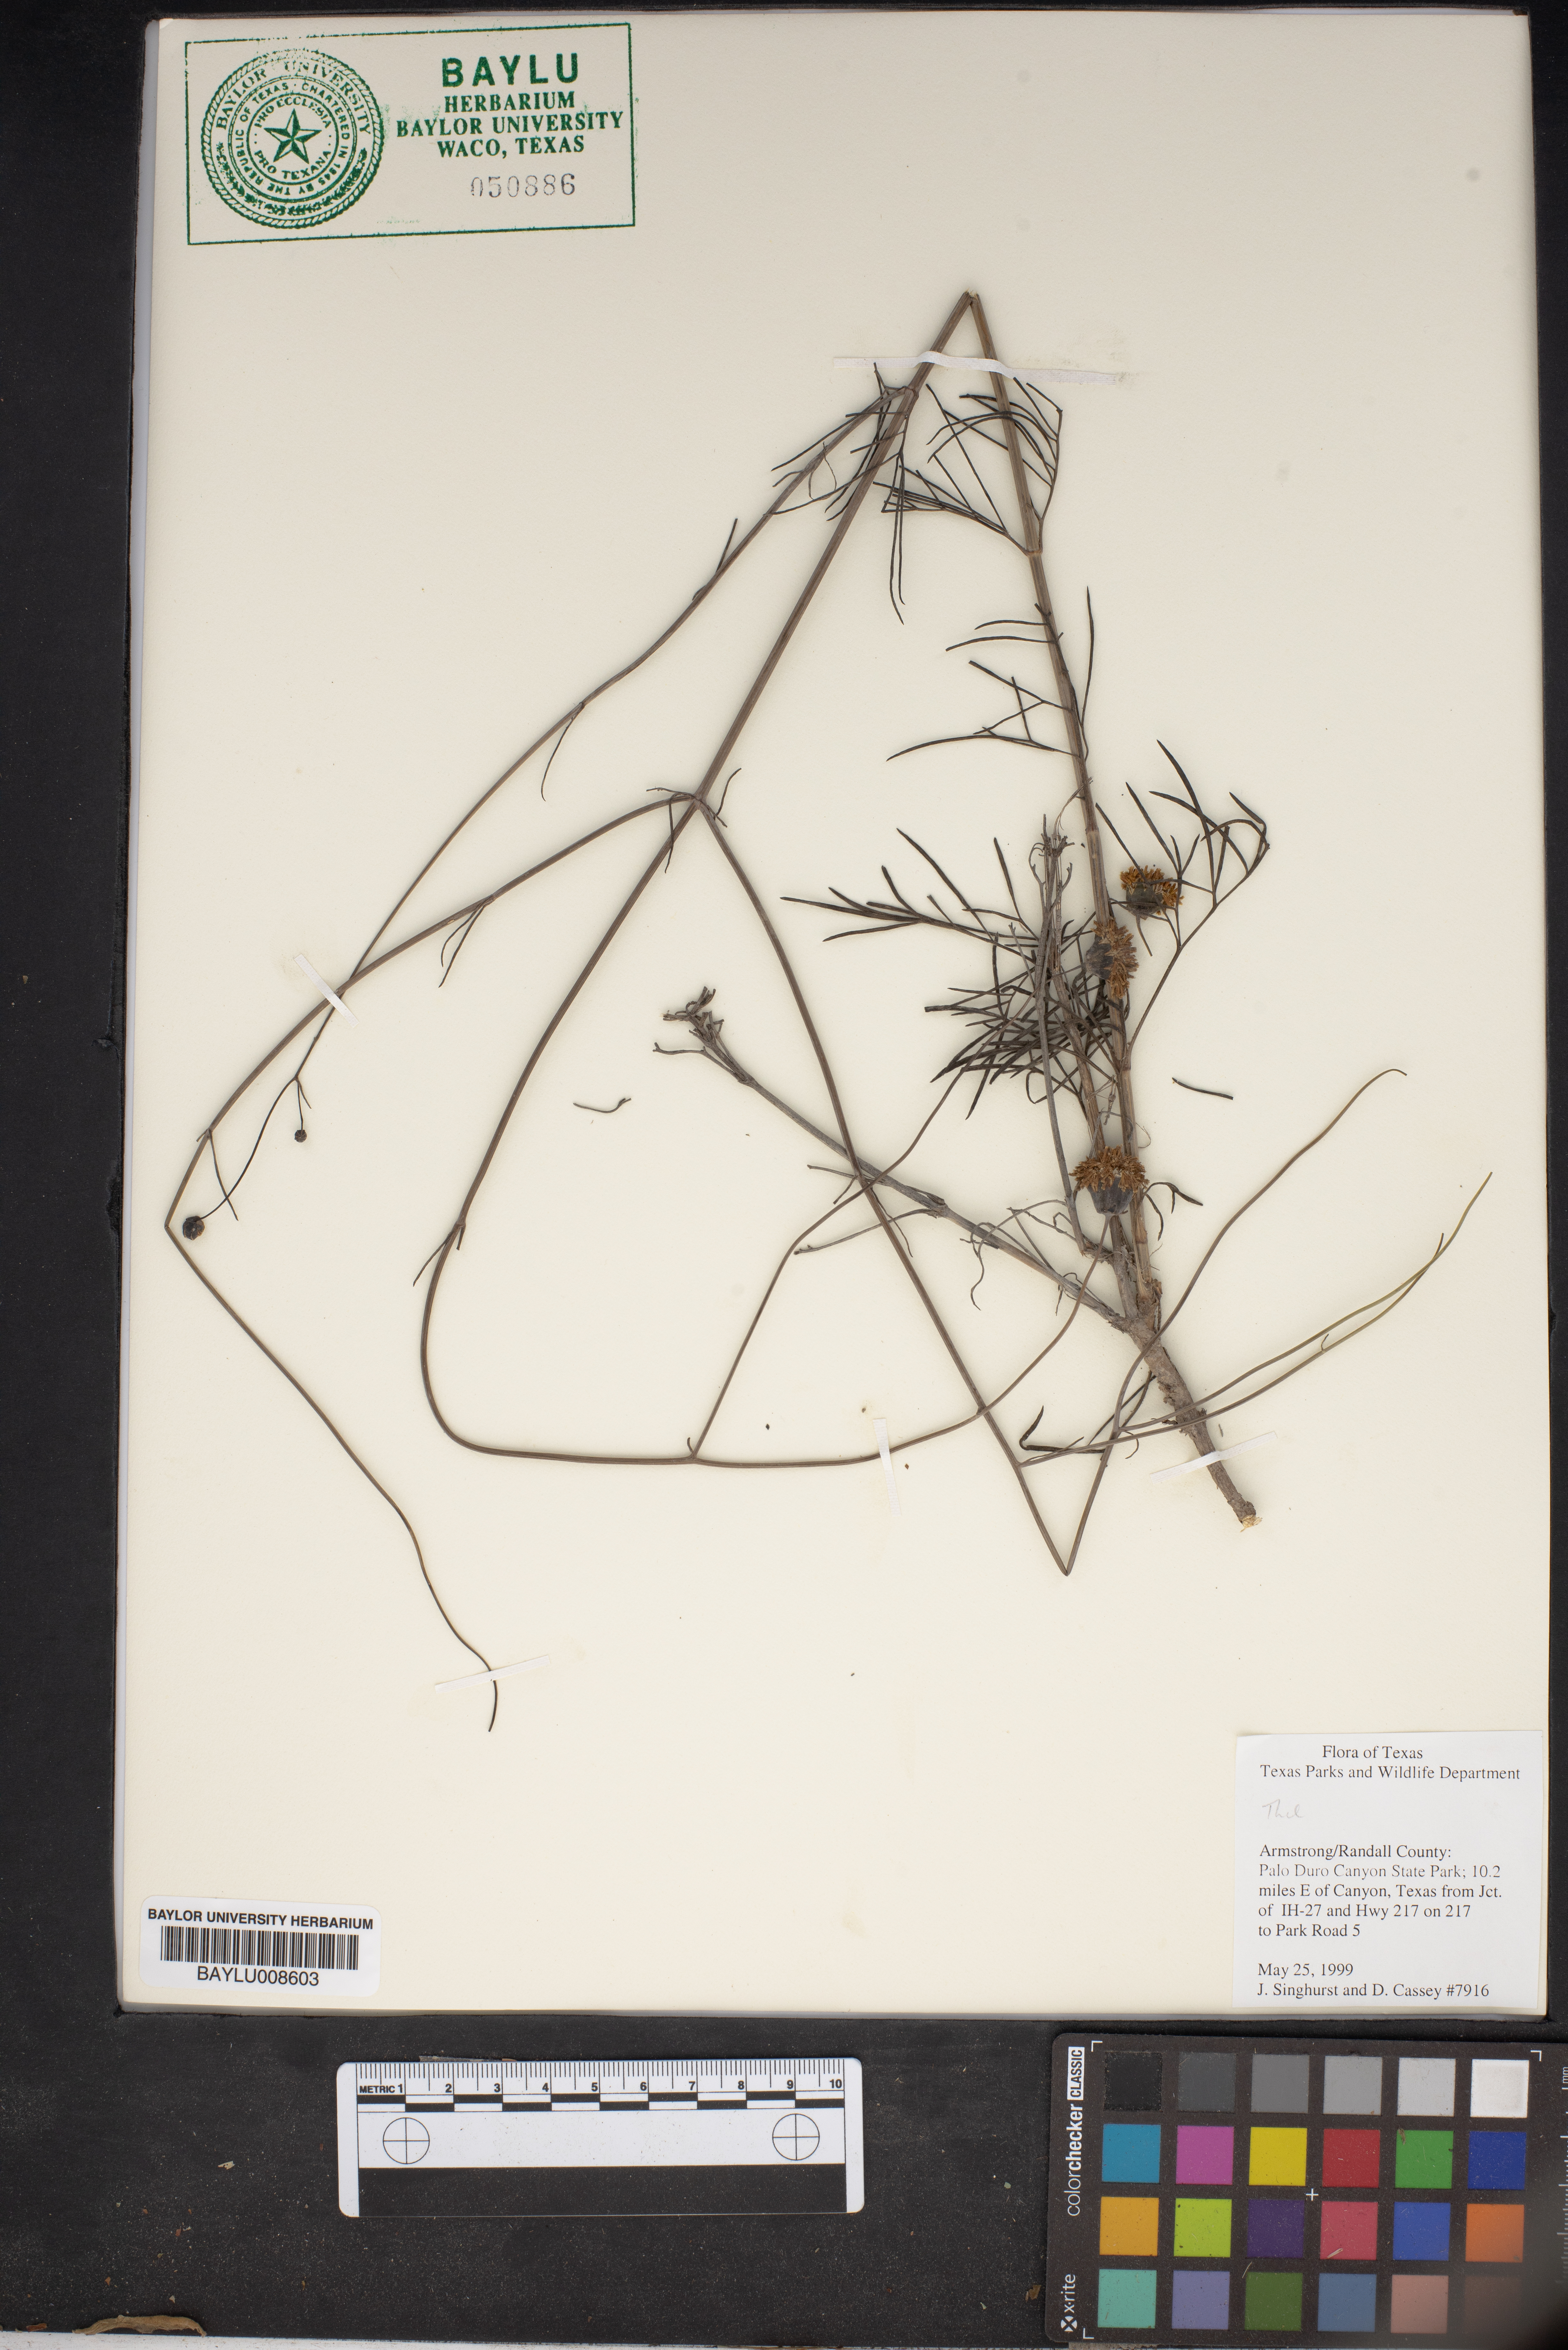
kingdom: Plantae
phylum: Tracheophyta
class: Magnoliopsida
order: Ericales
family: Theaceae
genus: Camellia
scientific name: Camellia
